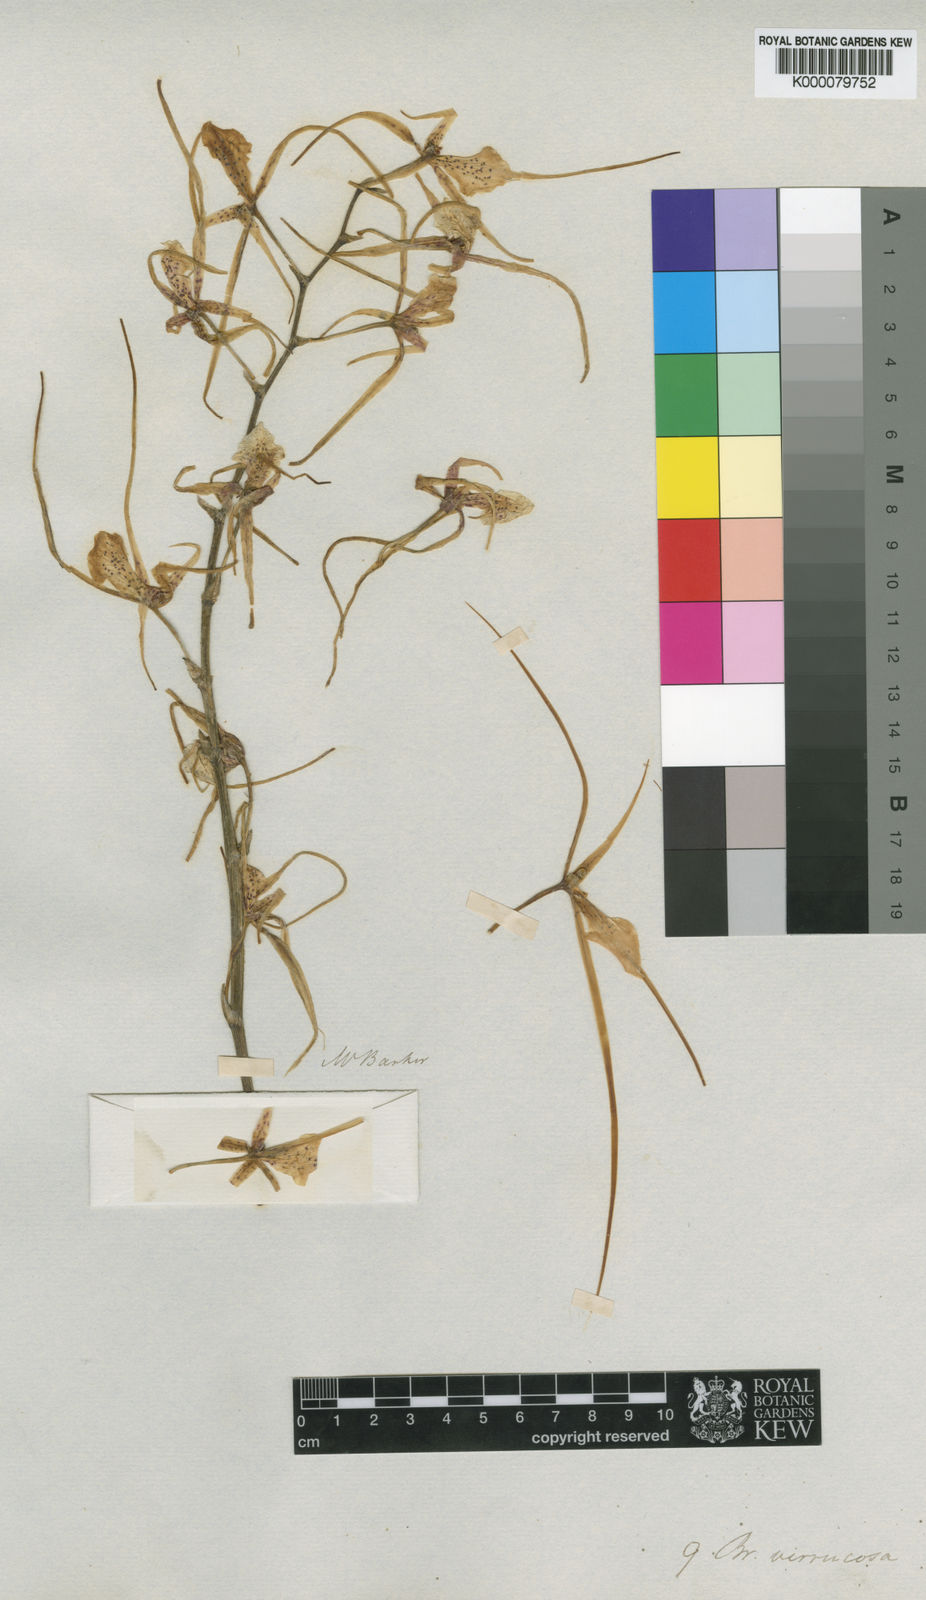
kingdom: Plantae
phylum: Tracheophyta
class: Liliopsida
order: Asparagales
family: Orchidaceae
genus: Brassia
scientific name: Brassia verrucosa
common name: Warty brassia
